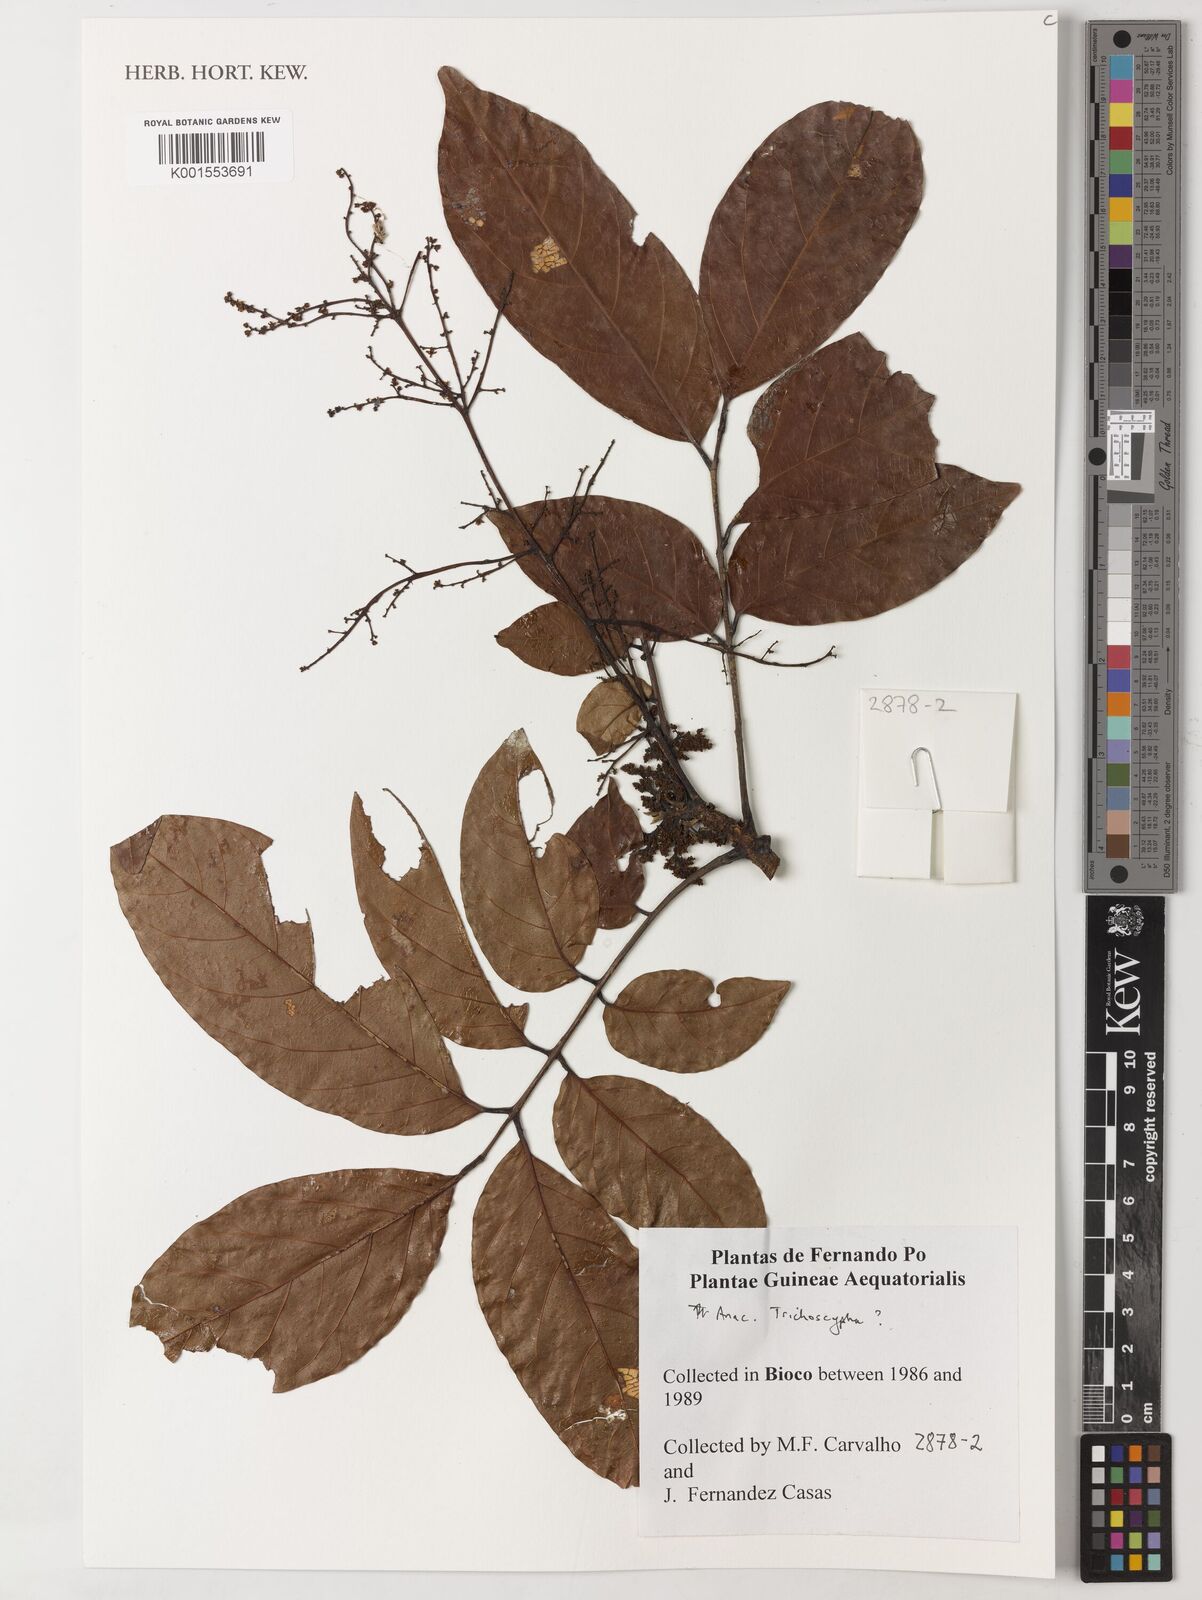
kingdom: Plantae
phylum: Tracheophyta
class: Magnoliopsida
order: Sapindales
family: Anacardiaceae
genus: Trichoscypha
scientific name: Trichoscypha
